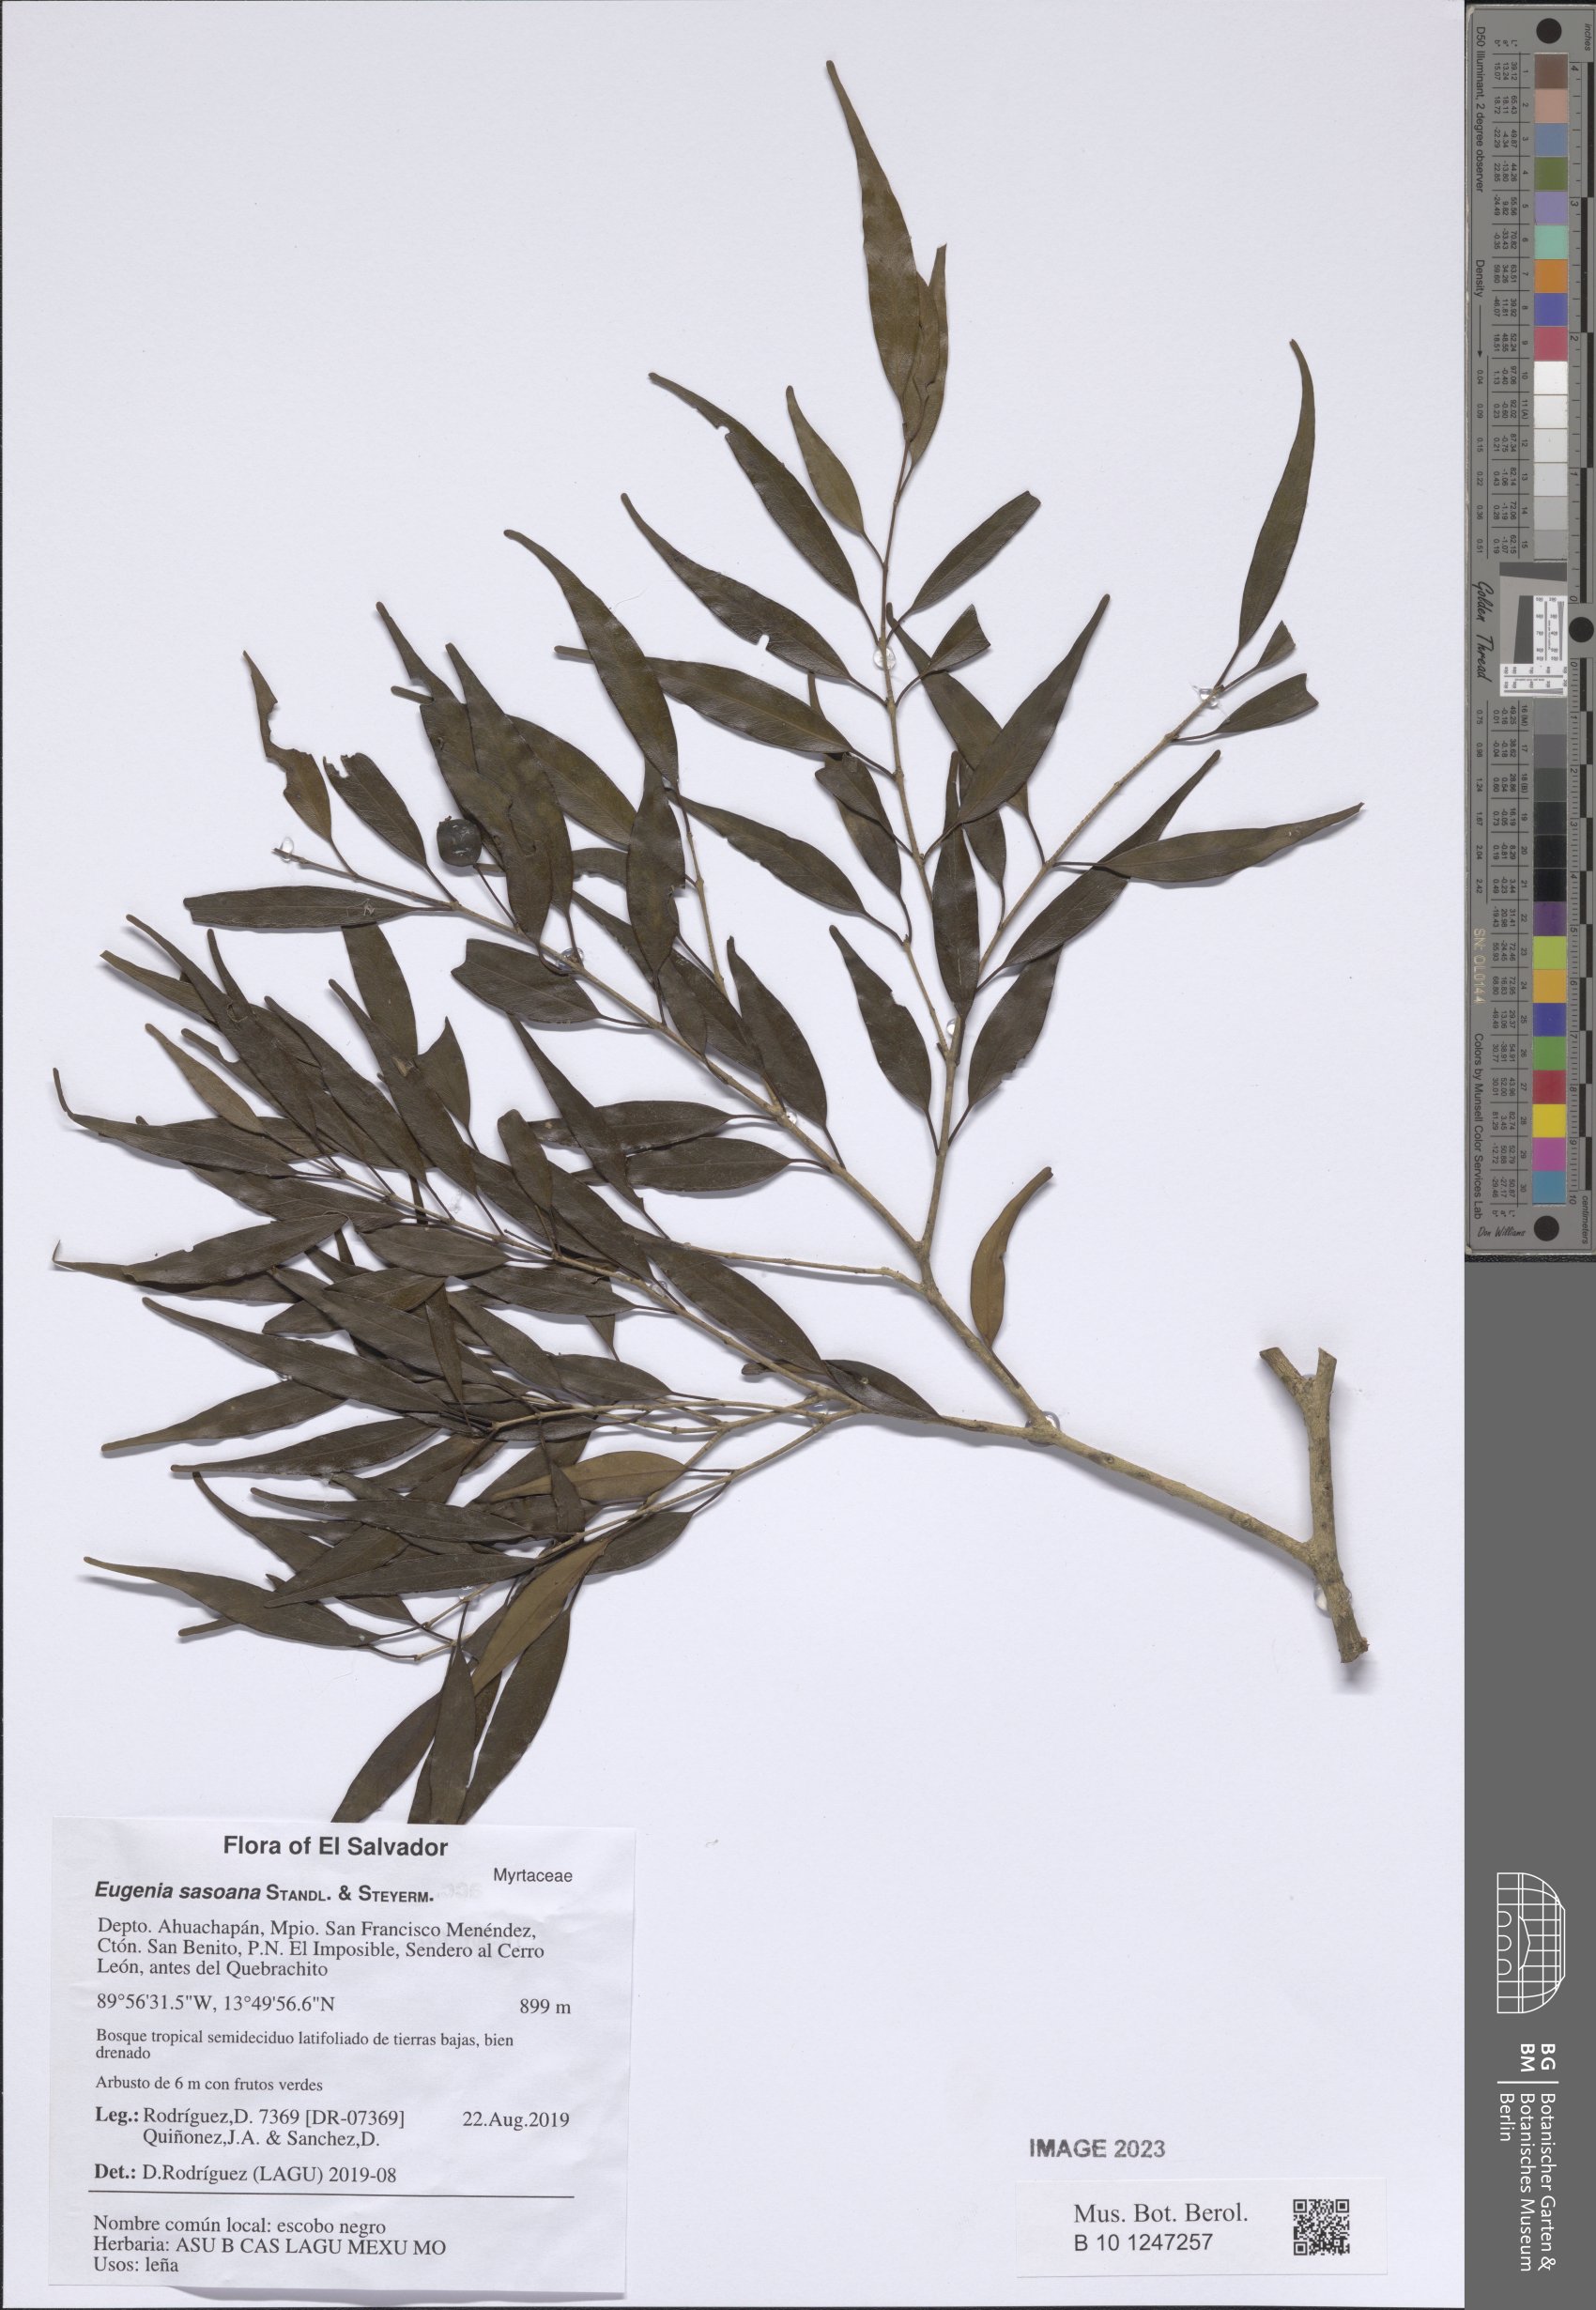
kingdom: Plantae
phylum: Tracheophyta
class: Magnoliopsida
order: Myrtales
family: Myrtaceae
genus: Eugenia
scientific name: Eugenia sasoana
